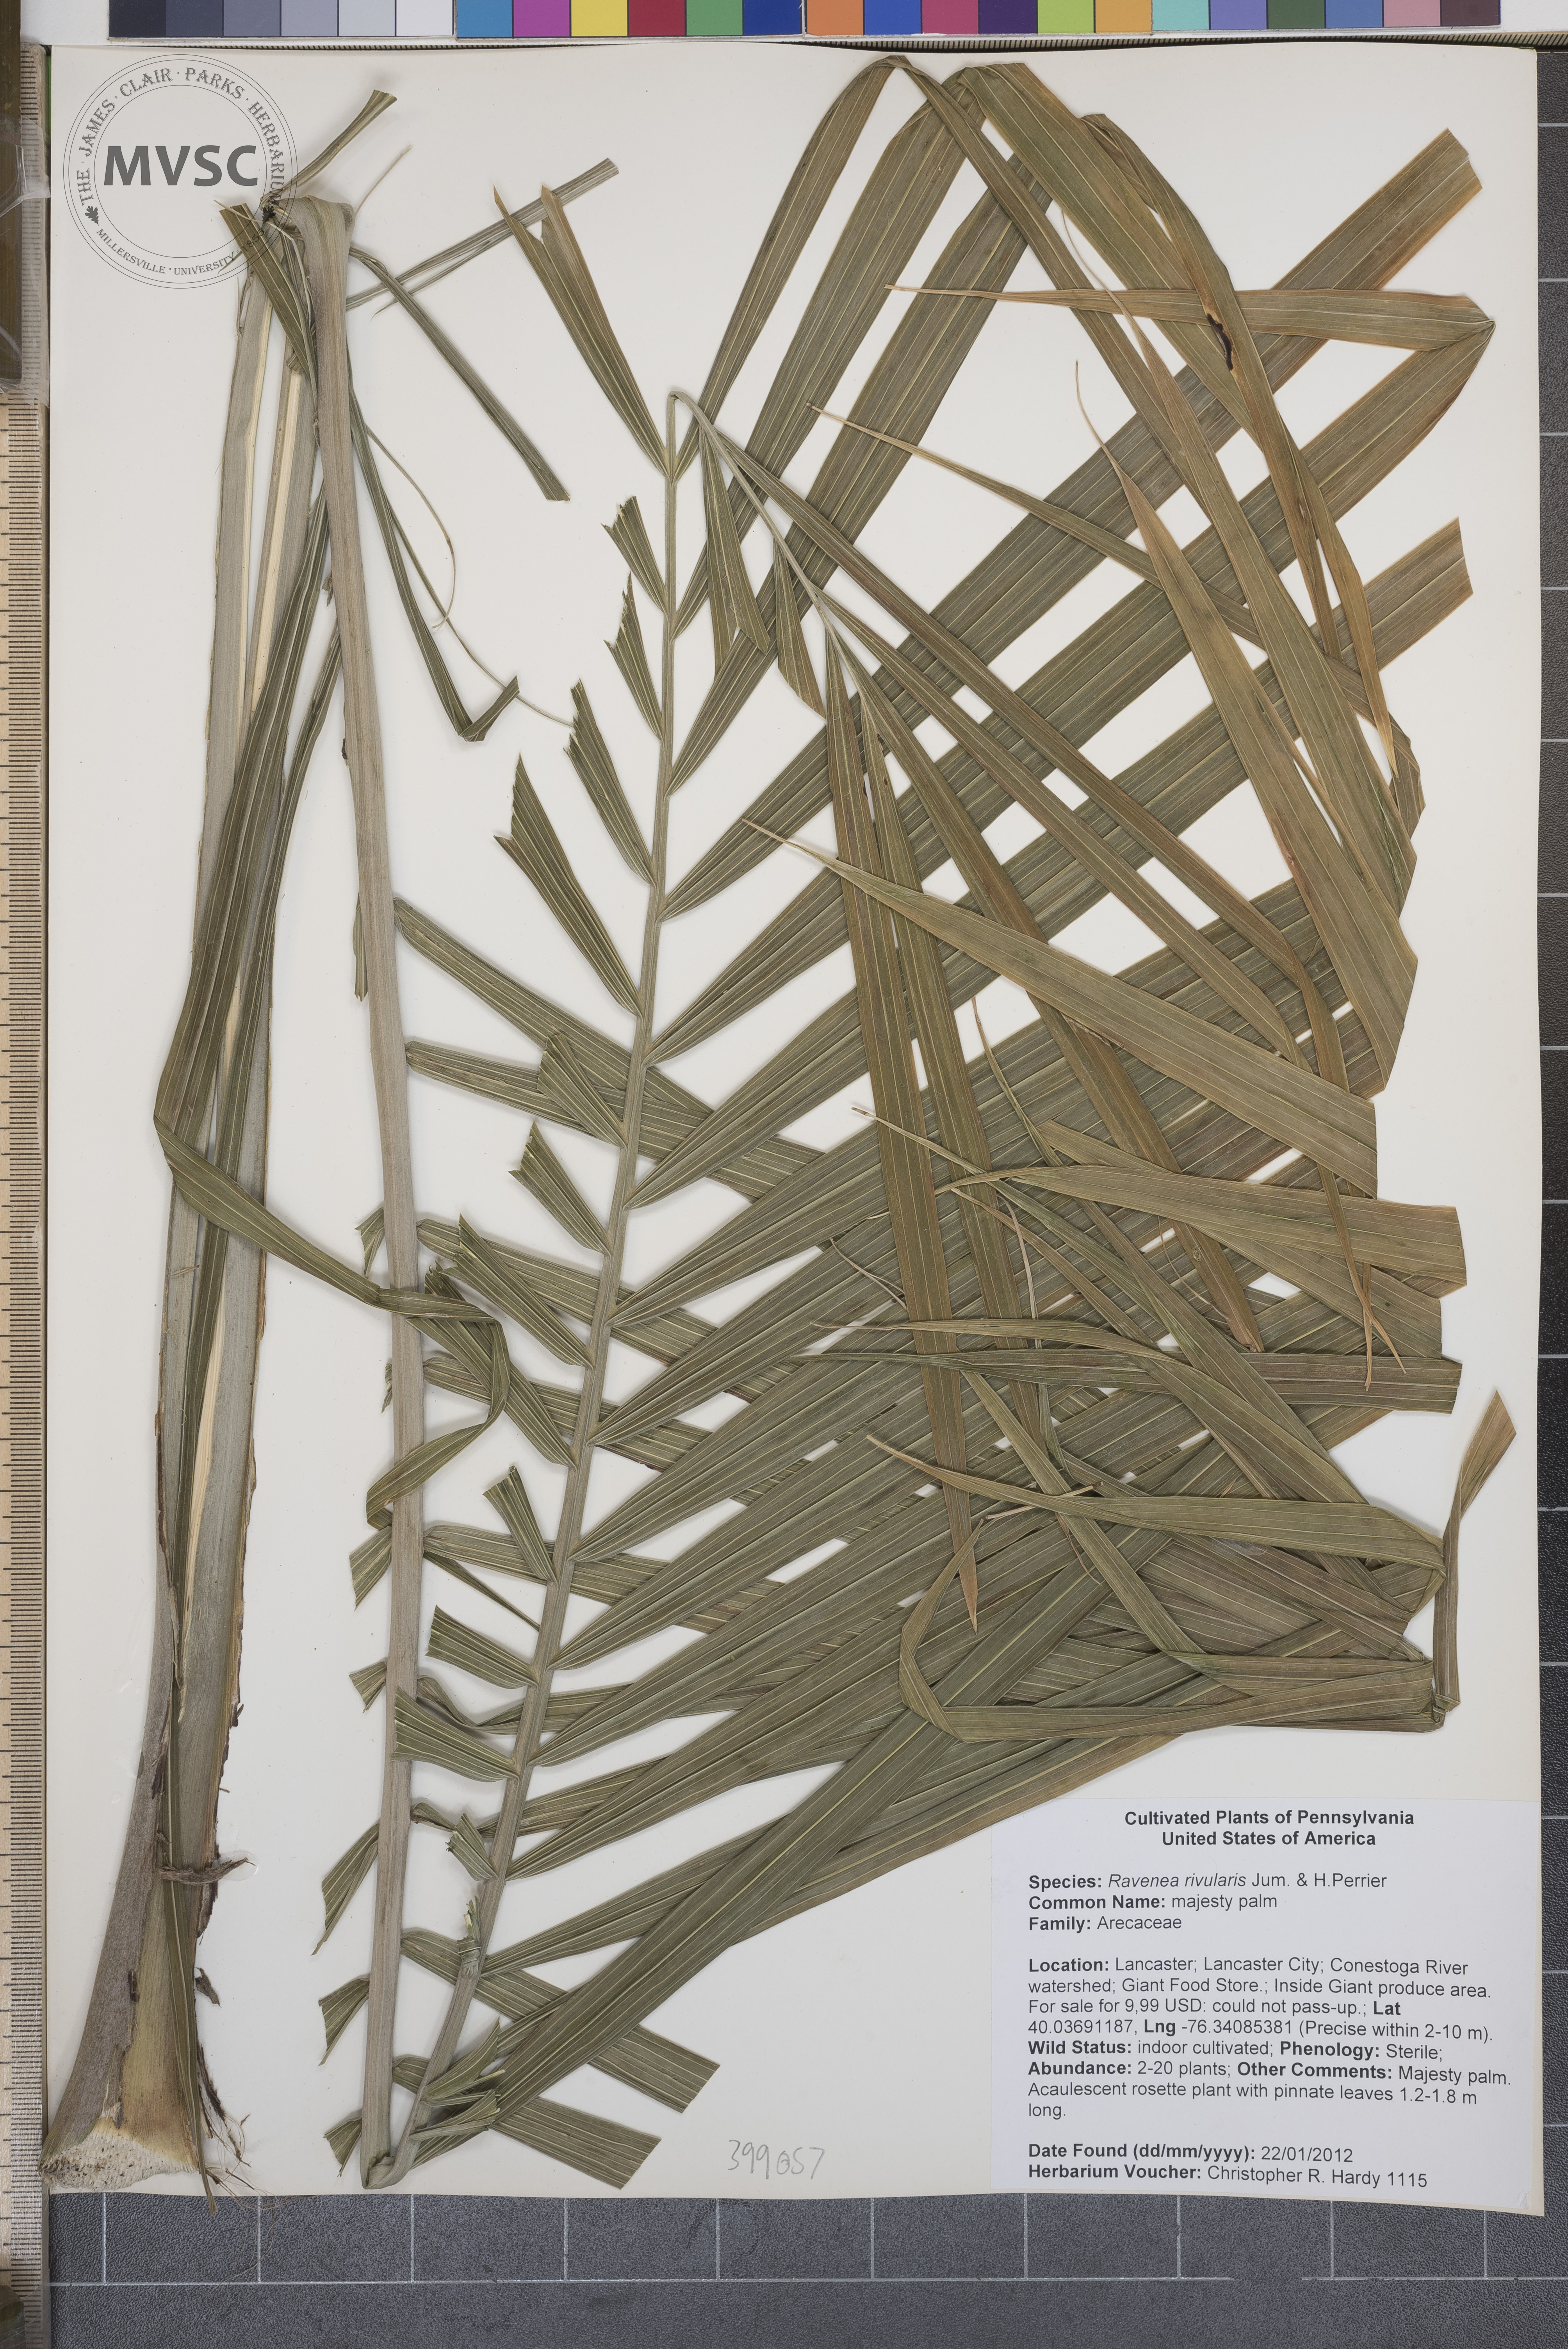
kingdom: Plantae
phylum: Tracheophyta
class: Liliopsida
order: Arecales
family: Arecaceae
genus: Ravenea
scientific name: Ravenea rivularis
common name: majesty palm
